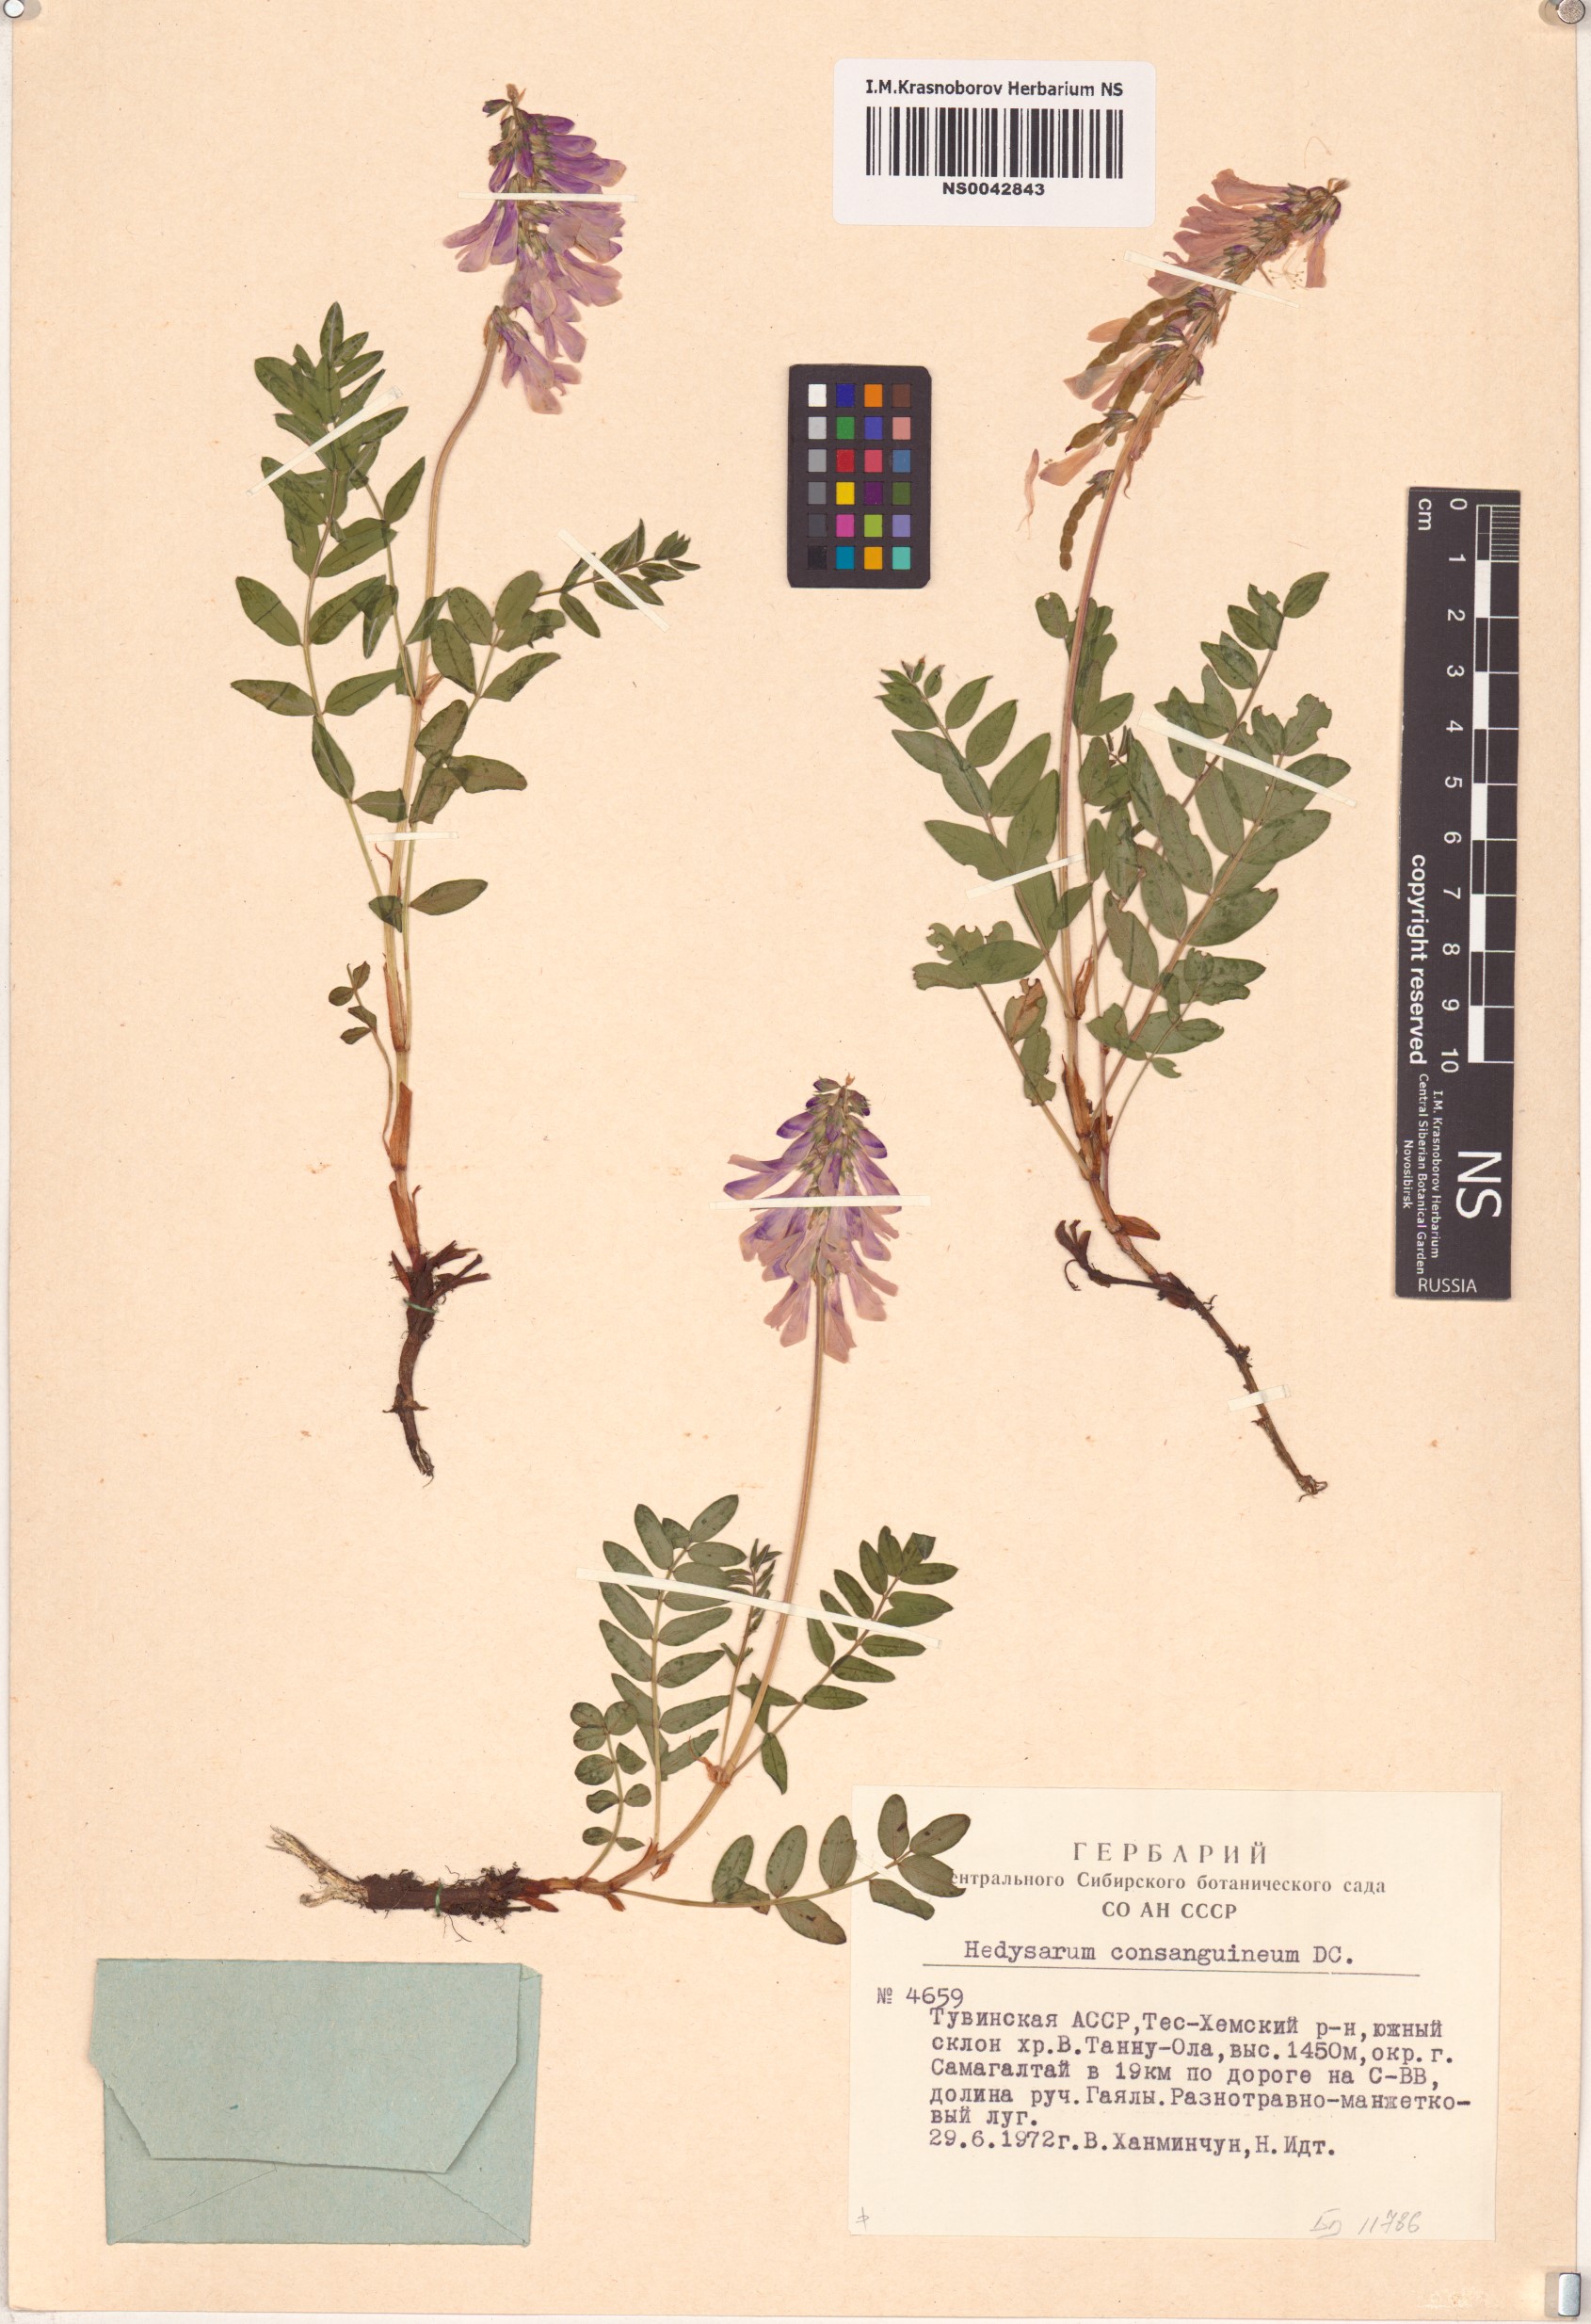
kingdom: Plantae
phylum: Tracheophyta
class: Magnoliopsida
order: Fabales
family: Fabaceae
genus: Hedysarum
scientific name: Hedysarum consanguineum
